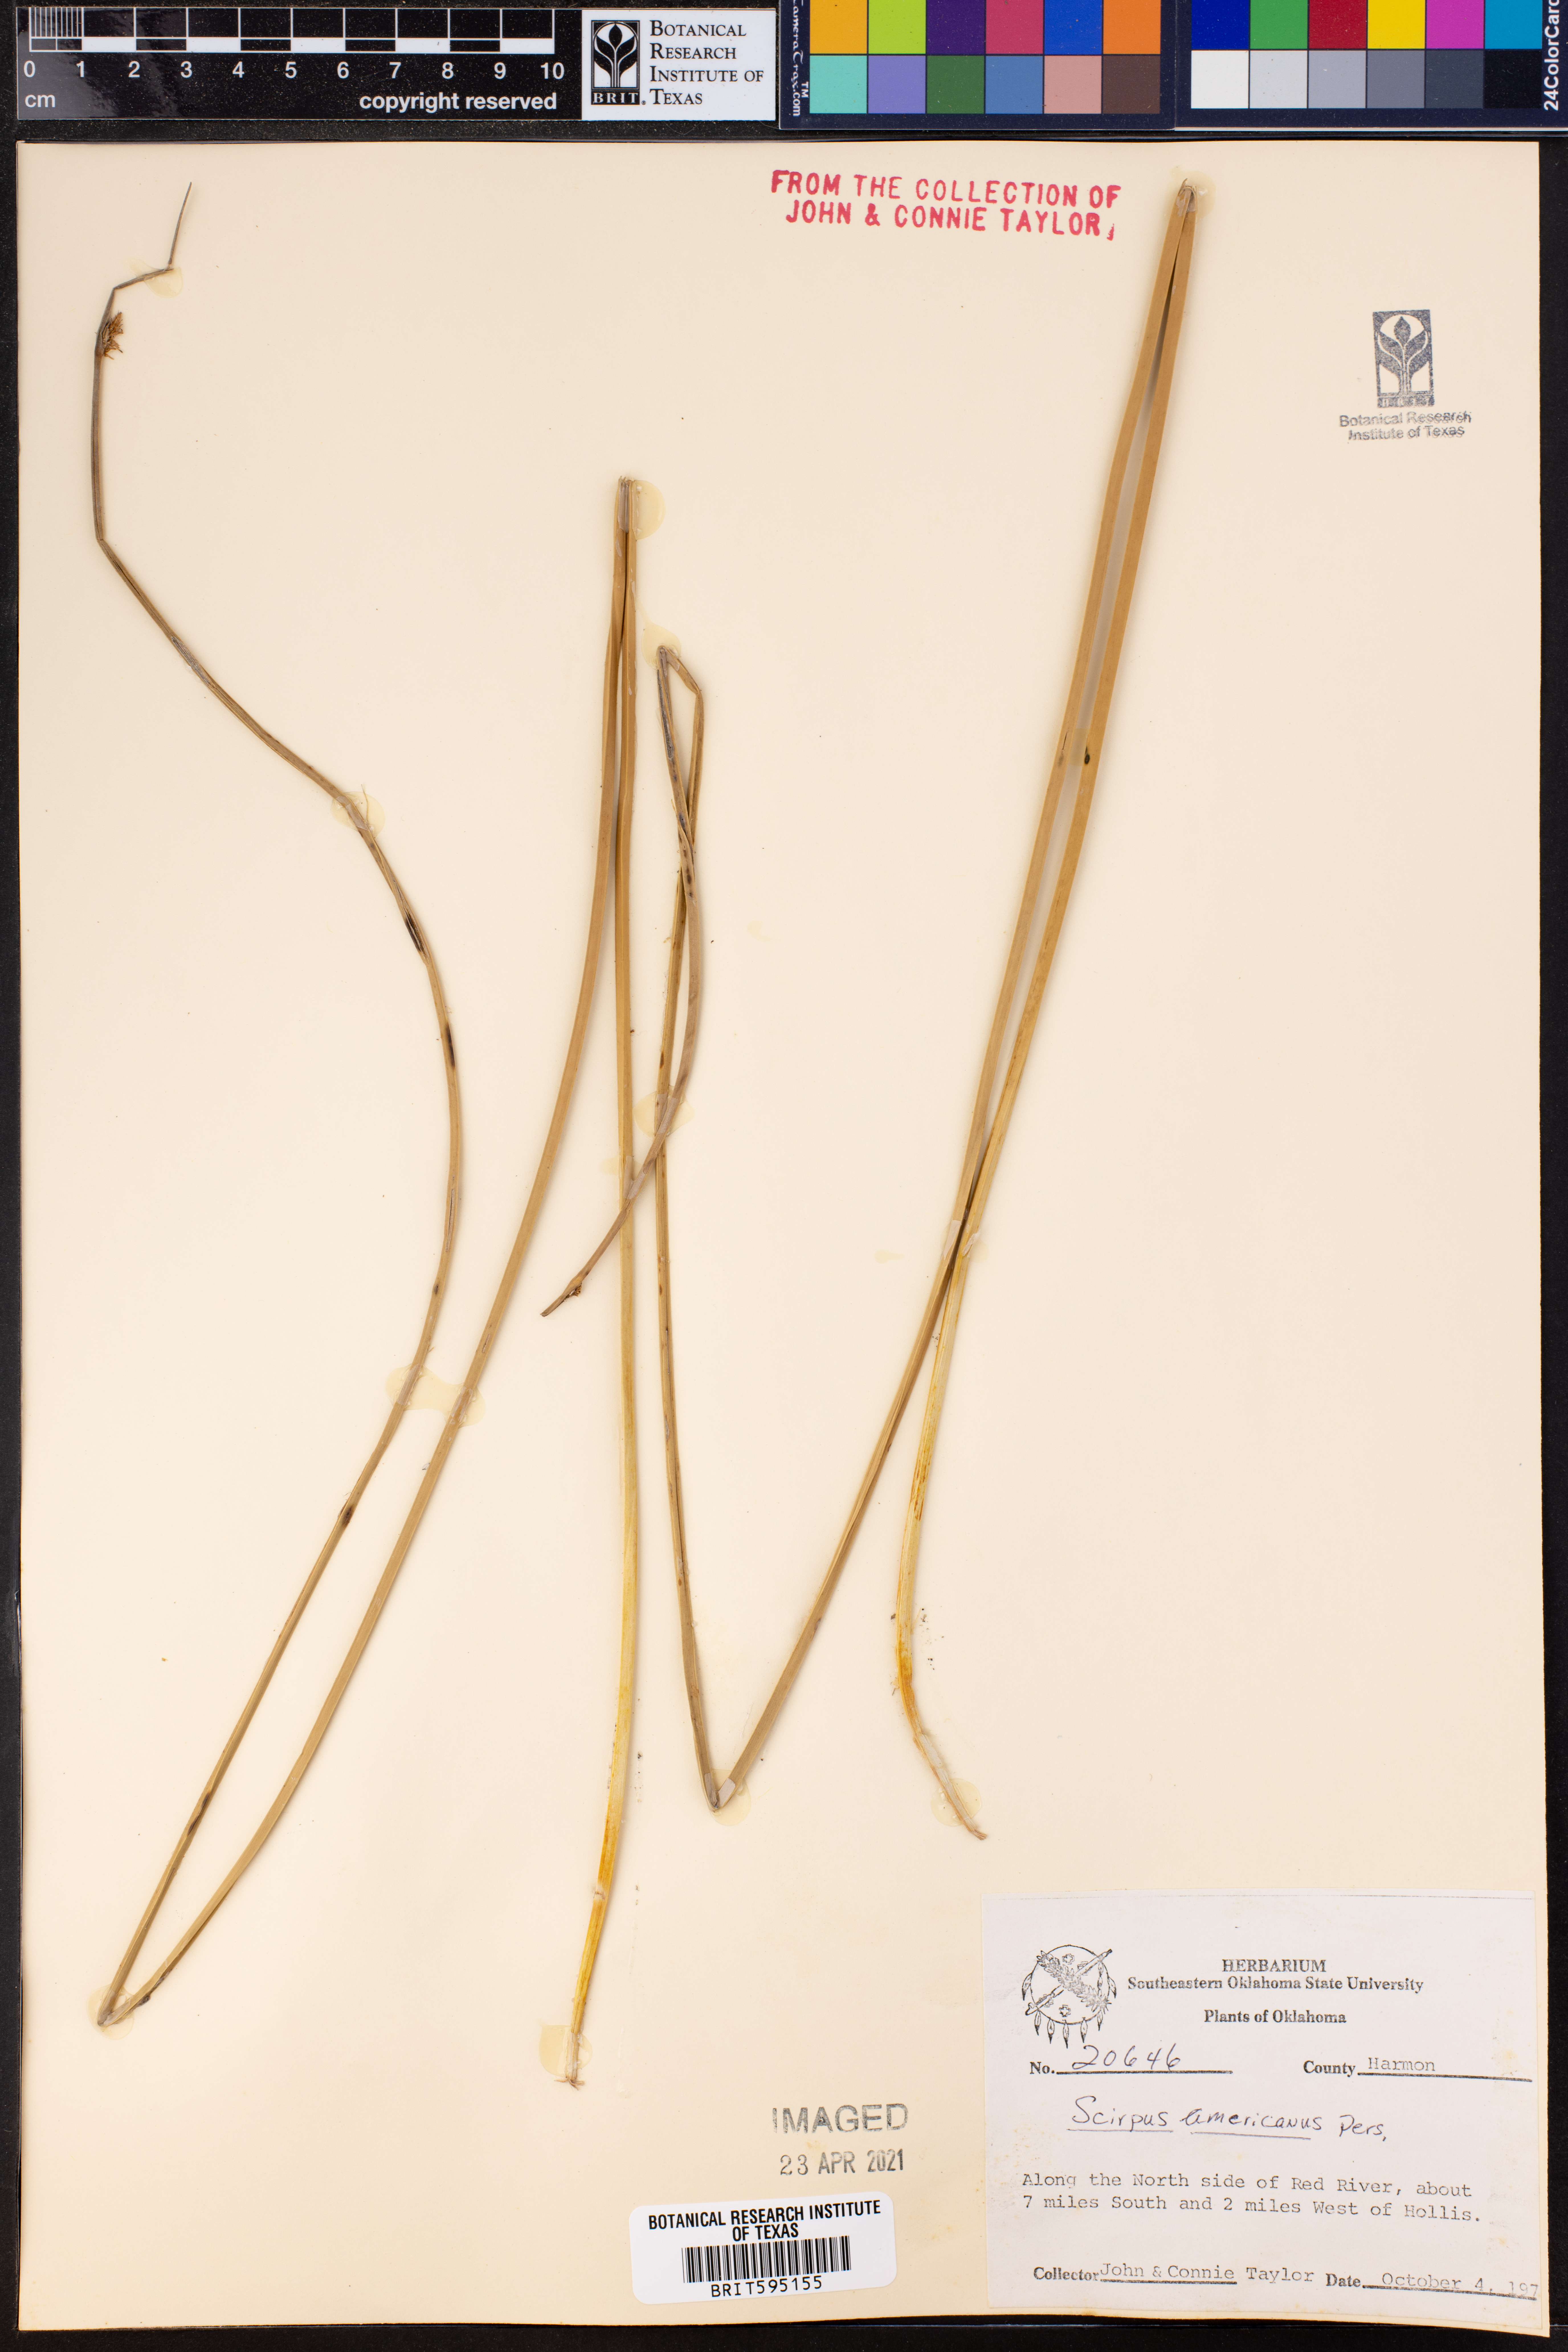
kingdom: Plantae
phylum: Tracheophyta
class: Liliopsida
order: Poales
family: Cyperaceae
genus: Schoenoplectus
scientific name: Schoenoplectus americanus
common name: American three-square bulrush
